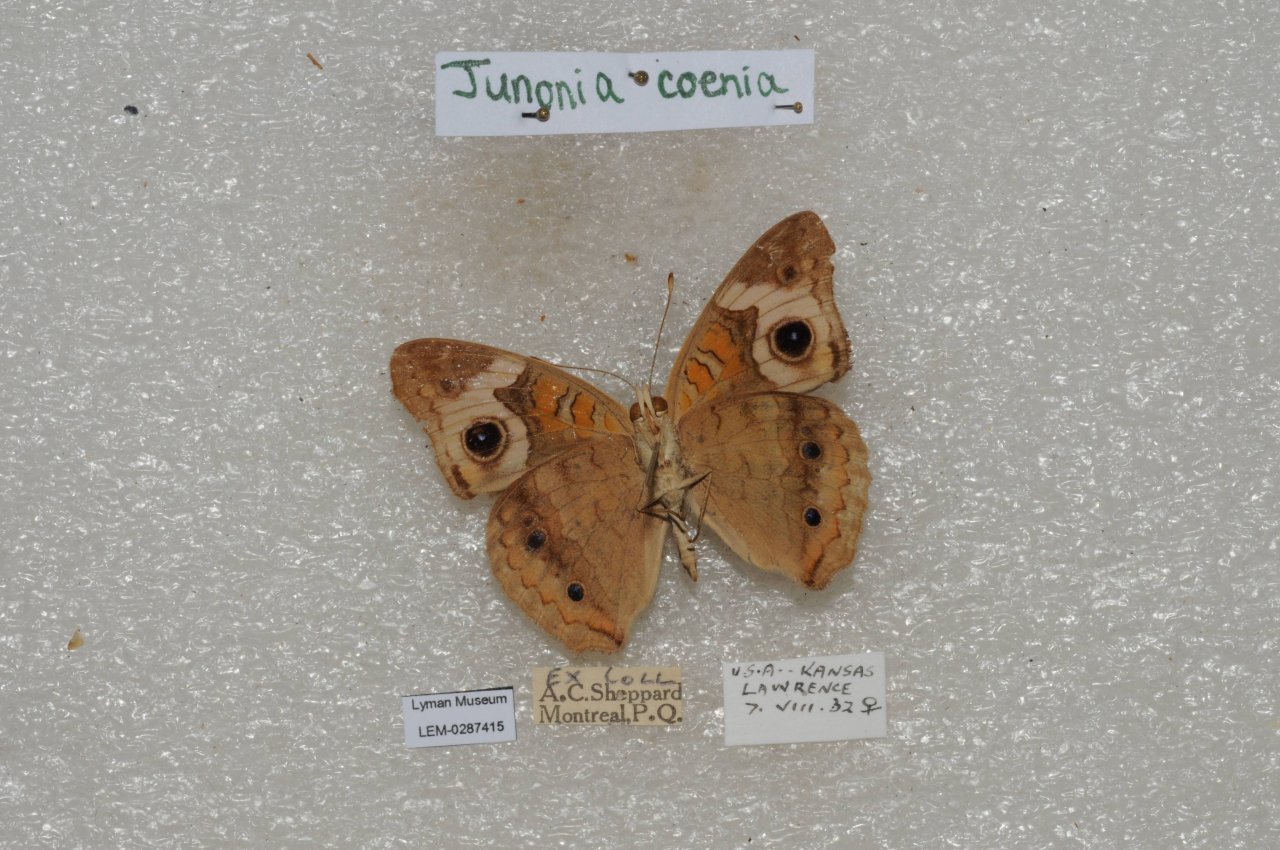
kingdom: Animalia
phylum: Arthropoda
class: Insecta
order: Lepidoptera
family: Nymphalidae
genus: Junonia
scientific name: Junonia coenia
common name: Common Buckeye
